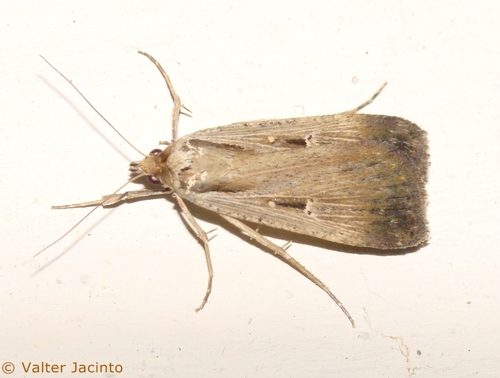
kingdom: Animalia
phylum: Arthropoda
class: Insecta
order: Lepidoptera
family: Noctuidae
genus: Tathorhynchus
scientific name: Tathorhynchus exsiccata
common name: Levant blackneck moth
